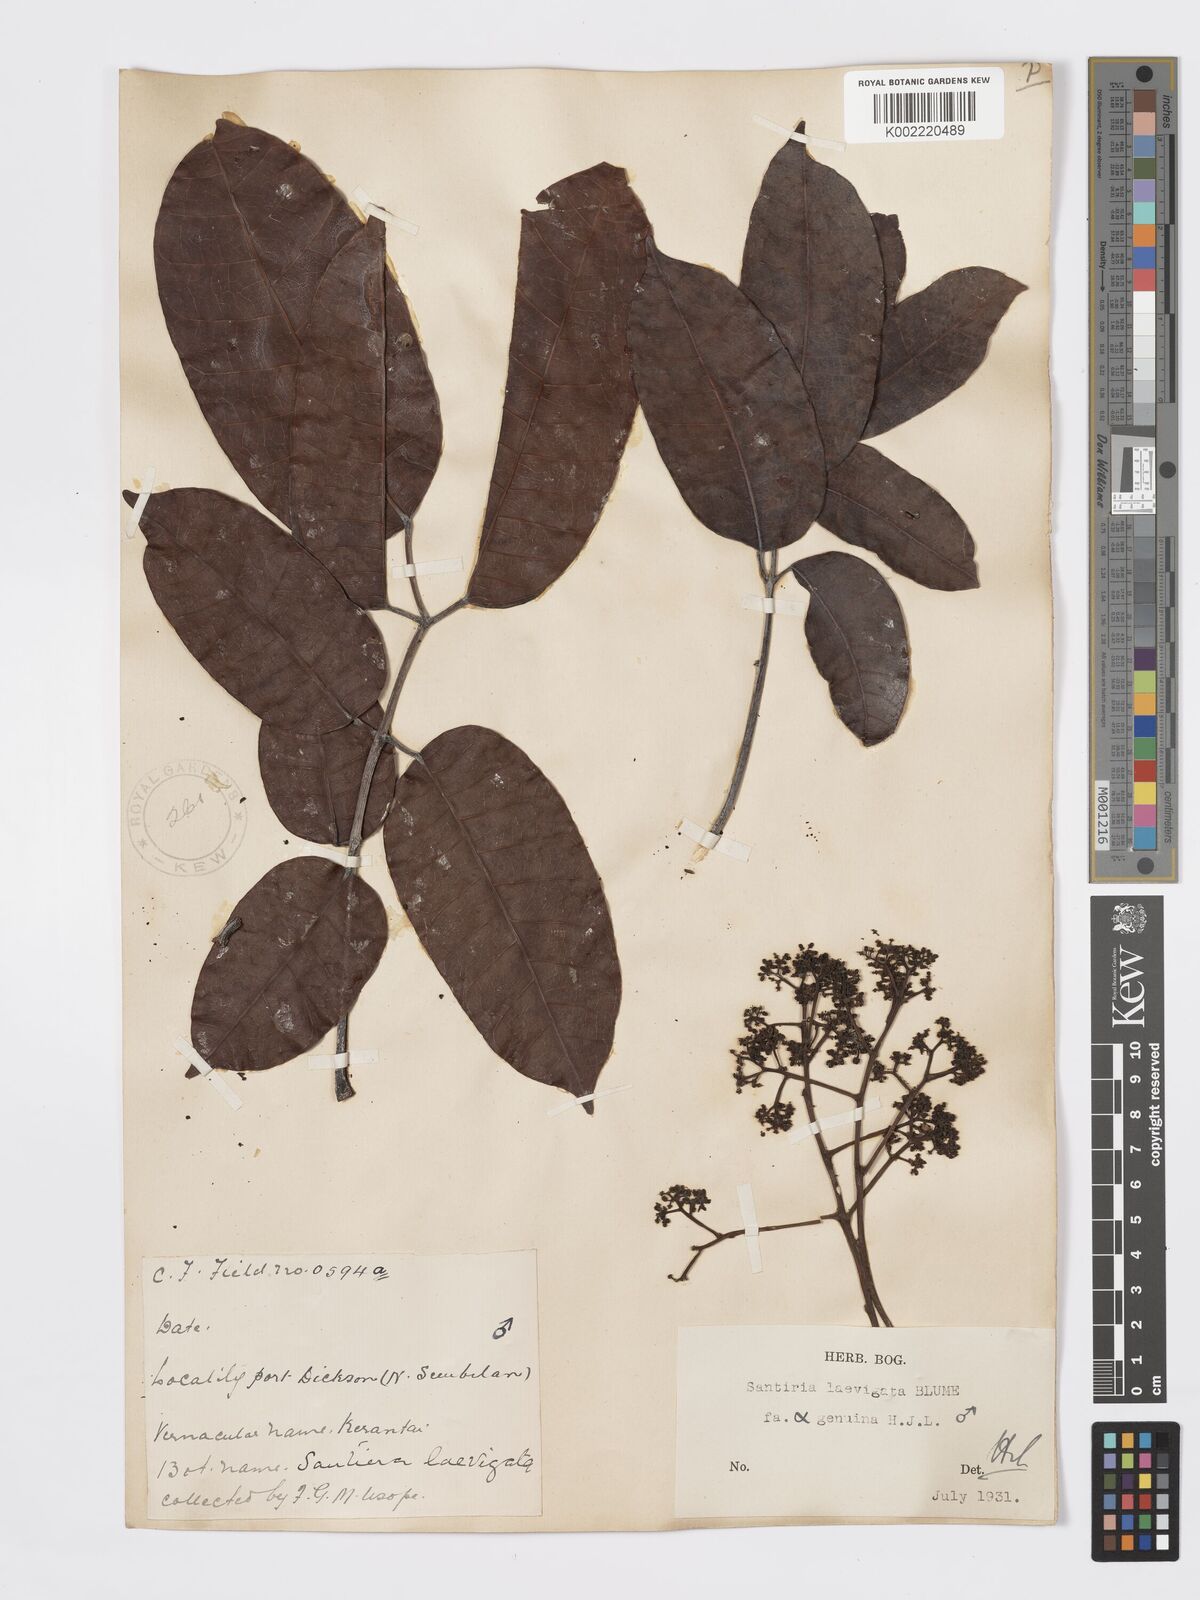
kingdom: Plantae
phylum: Tracheophyta
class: Magnoliopsida
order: Sapindales
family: Burseraceae
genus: Santiria
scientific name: Santiria laevigata
